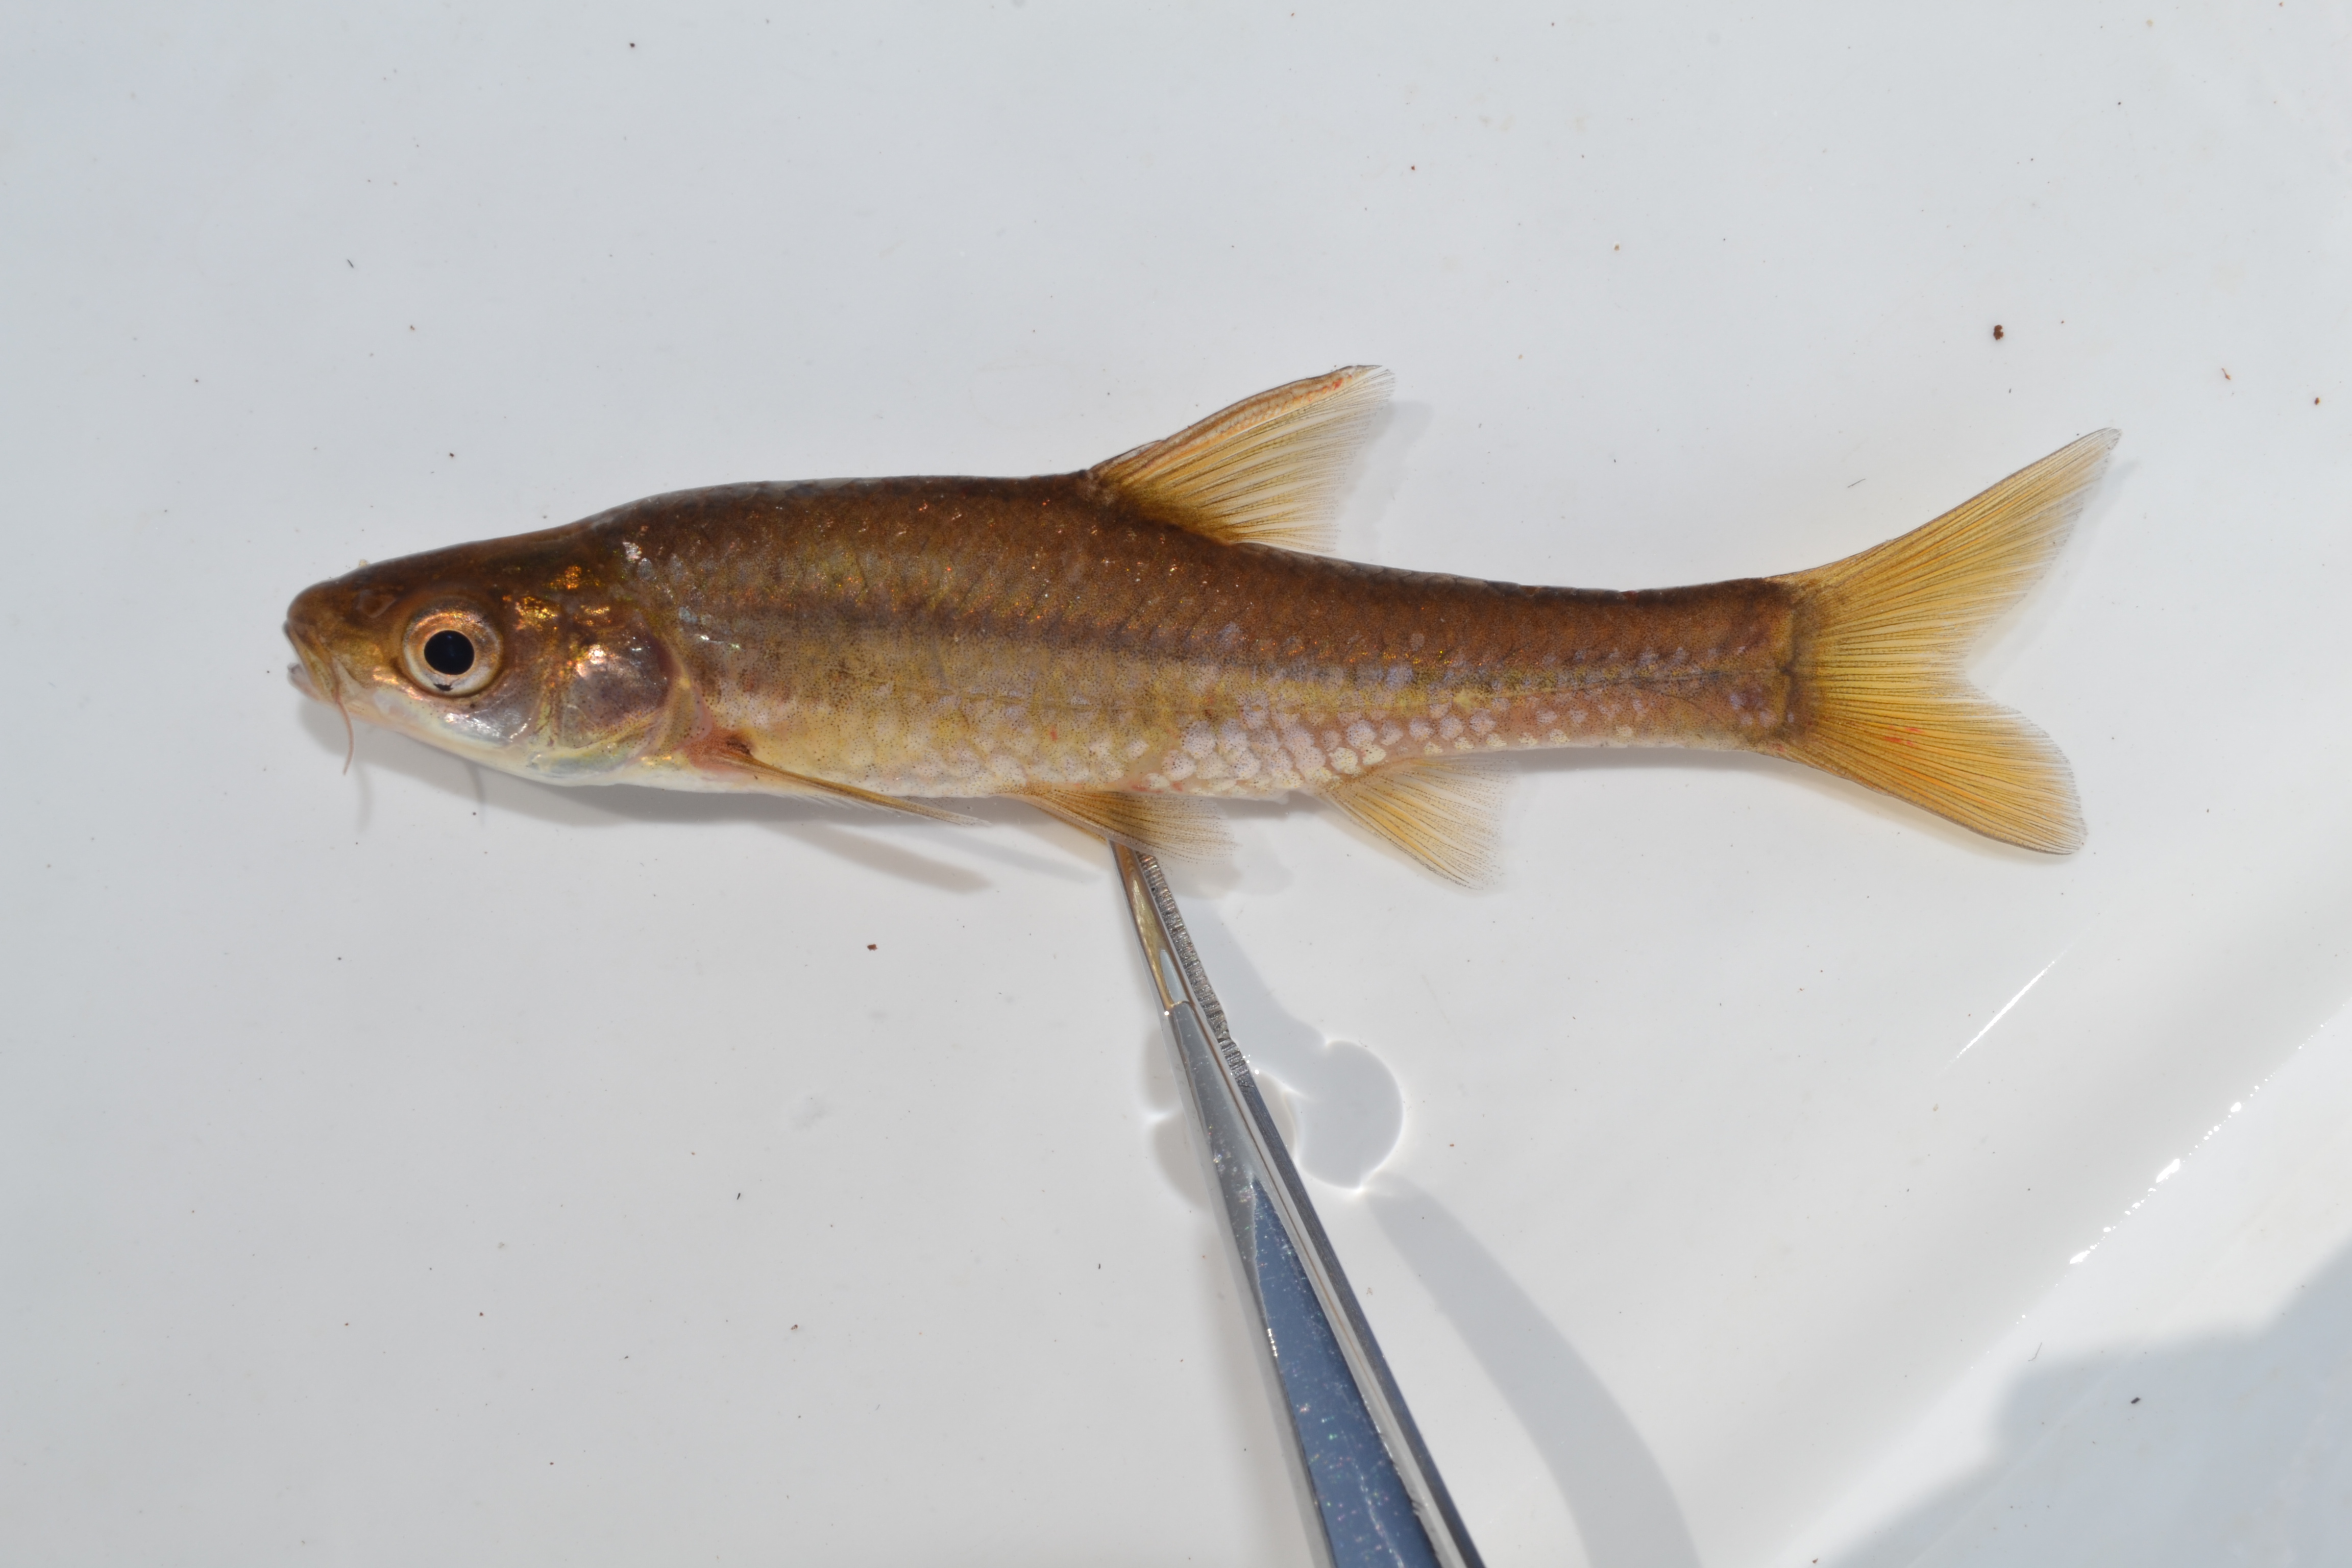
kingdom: Animalia
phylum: Chordata
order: Cypriniformes
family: Cyprinidae
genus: Enteromius
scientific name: Enteromius paludinosus
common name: Straightfin barb
